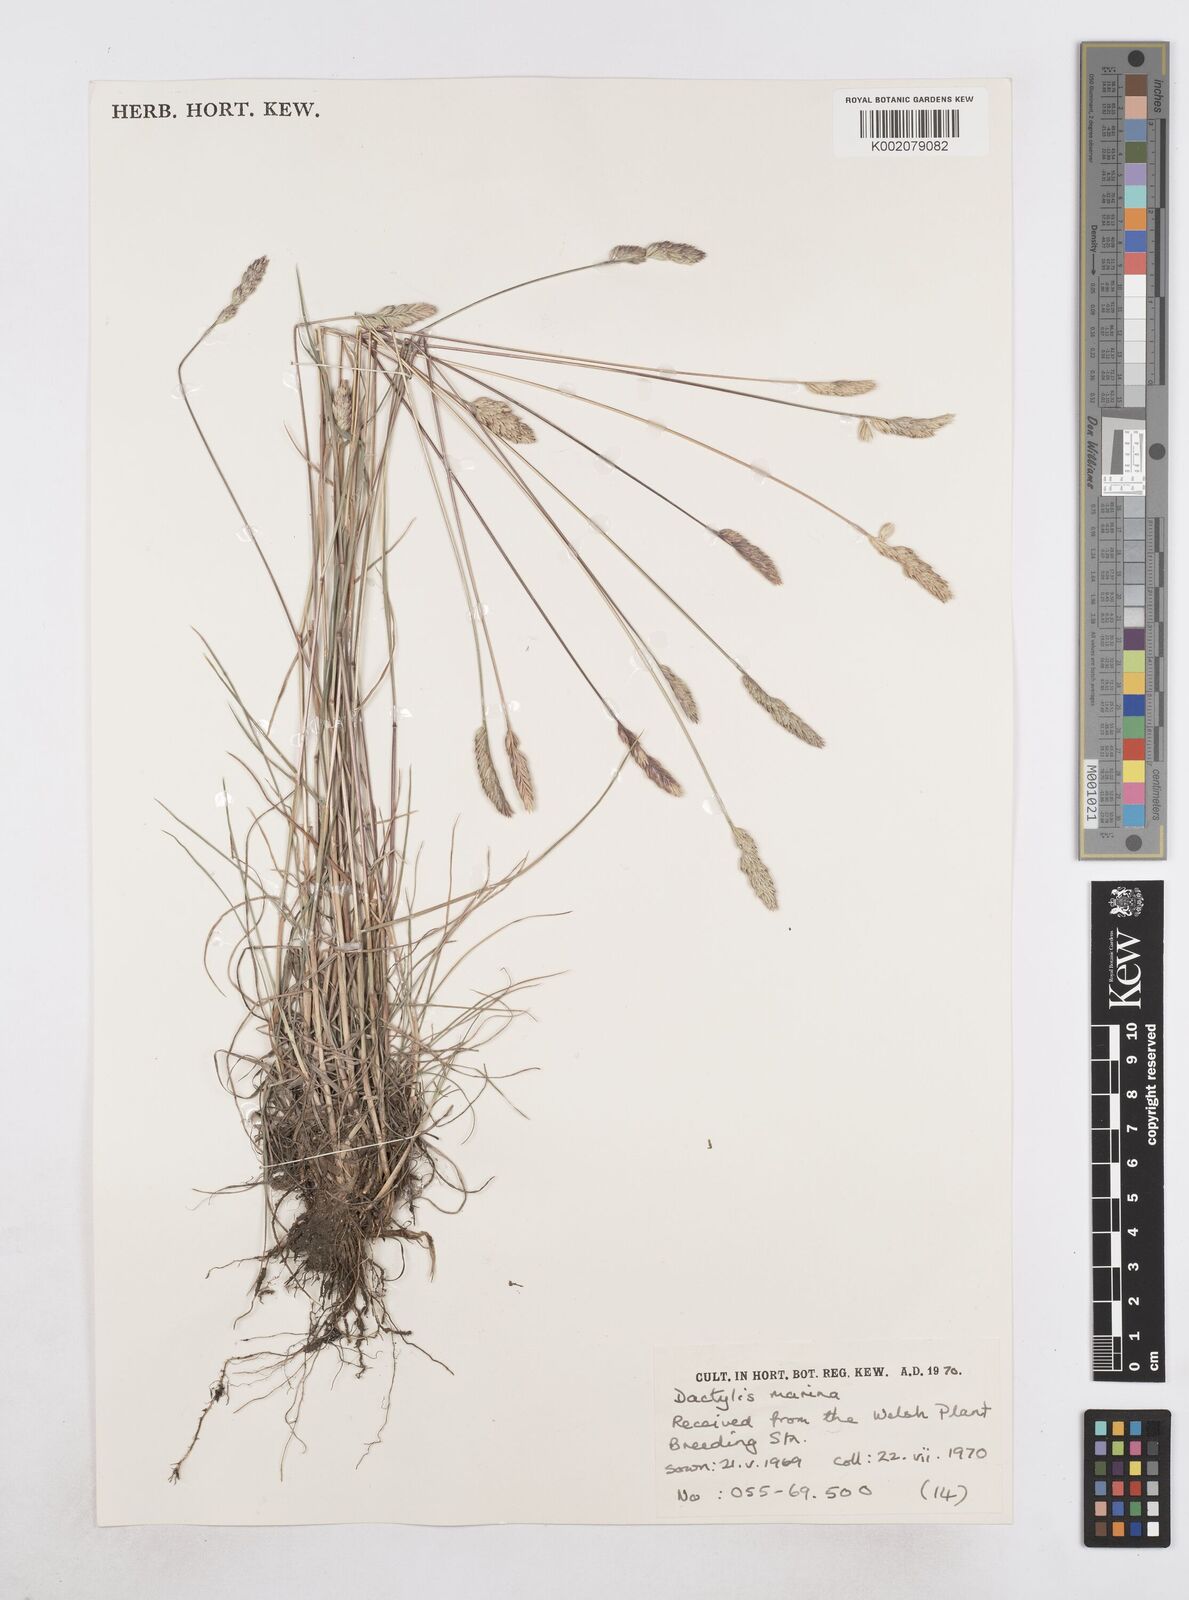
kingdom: Plantae
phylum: Tracheophyta
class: Liliopsida
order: Poales
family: Poaceae
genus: Dactylis
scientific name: Dactylis glomerata
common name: Orchardgrass
